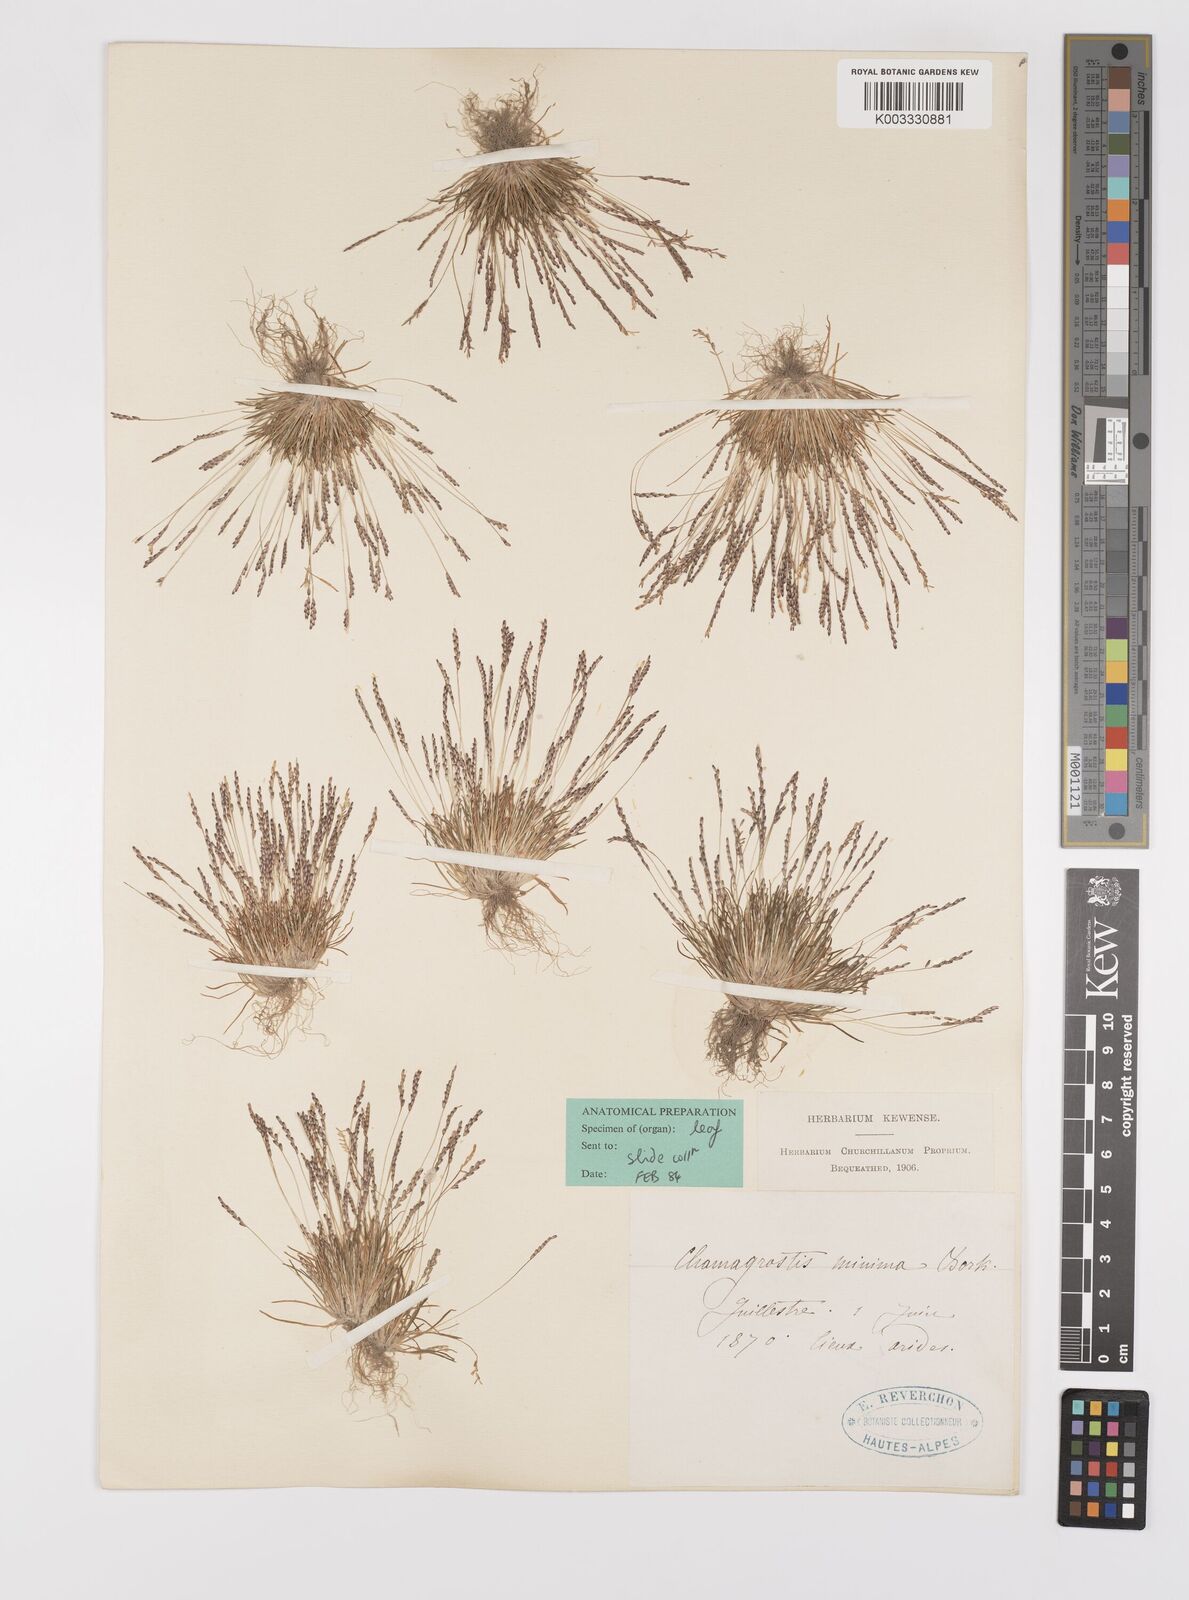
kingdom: Plantae
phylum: Tracheophyta
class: Liliopsida
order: Poales
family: Poaceae
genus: Mibora
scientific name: Mibora minima
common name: Early sand-grass
